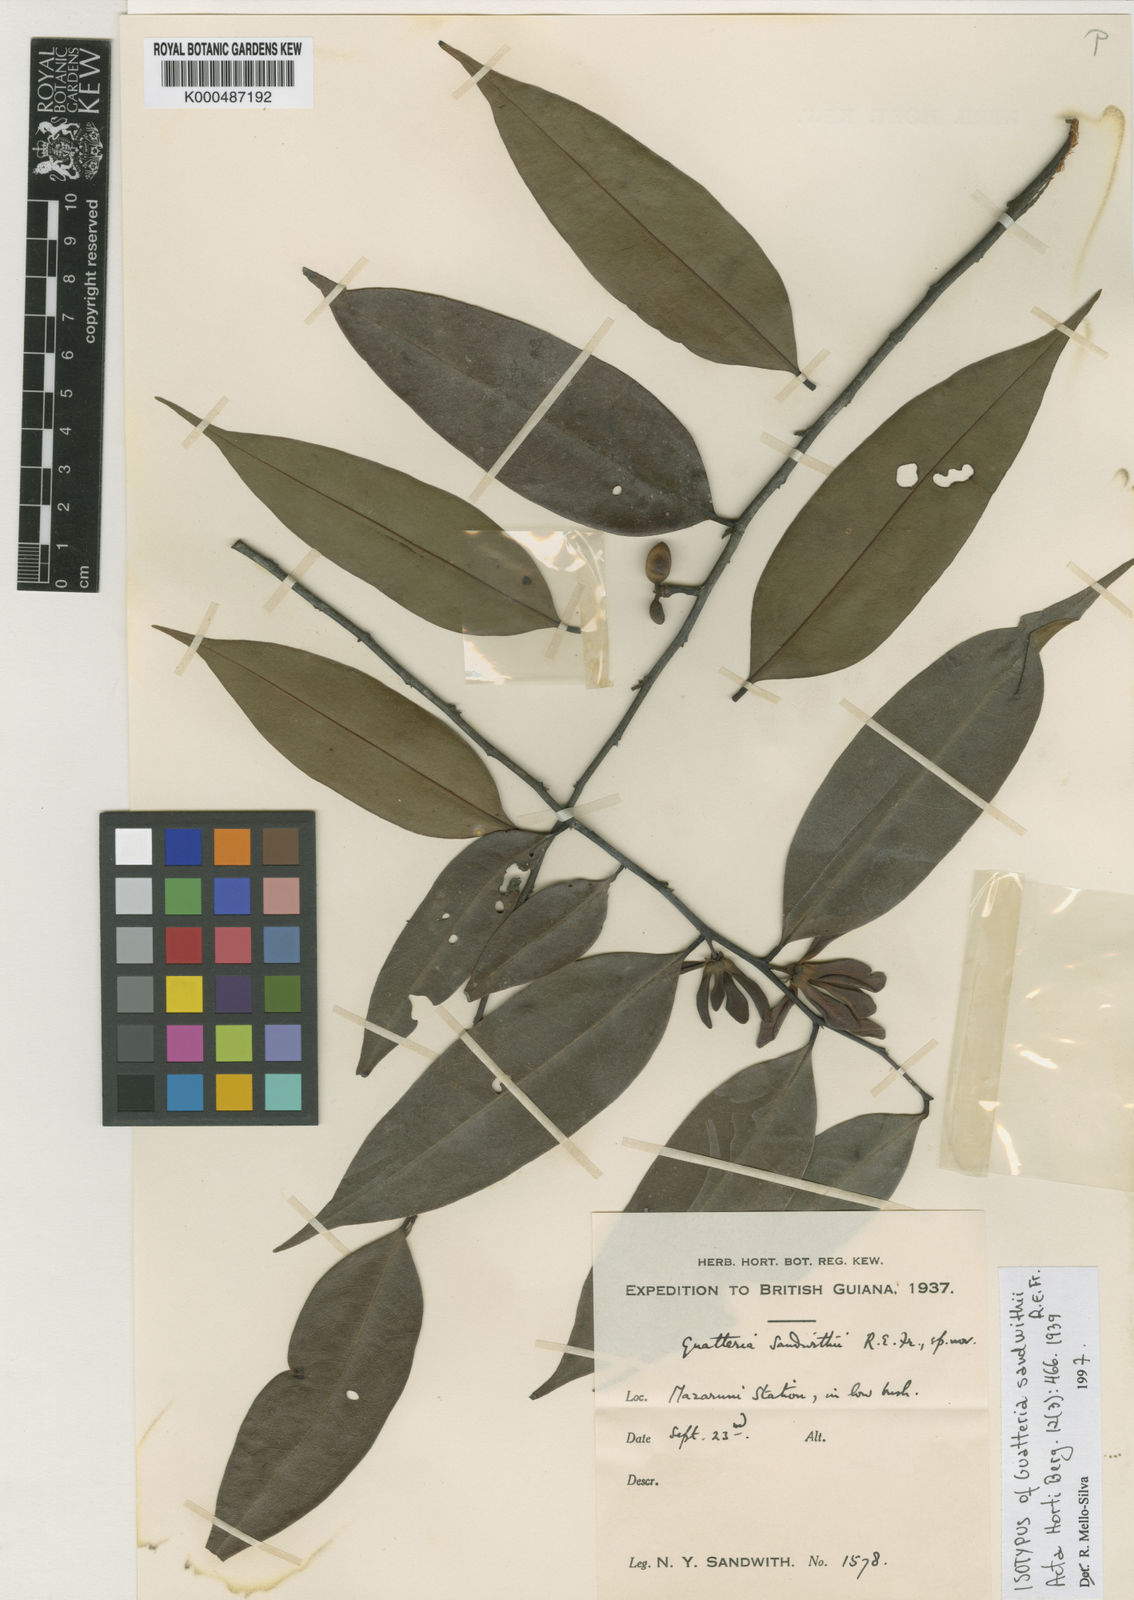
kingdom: Plantae
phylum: Tracheophyta
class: Magnoliopsida
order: Magnoliales
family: Annonaceae
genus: Guatteria
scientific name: Guatteria schomburgkiana
